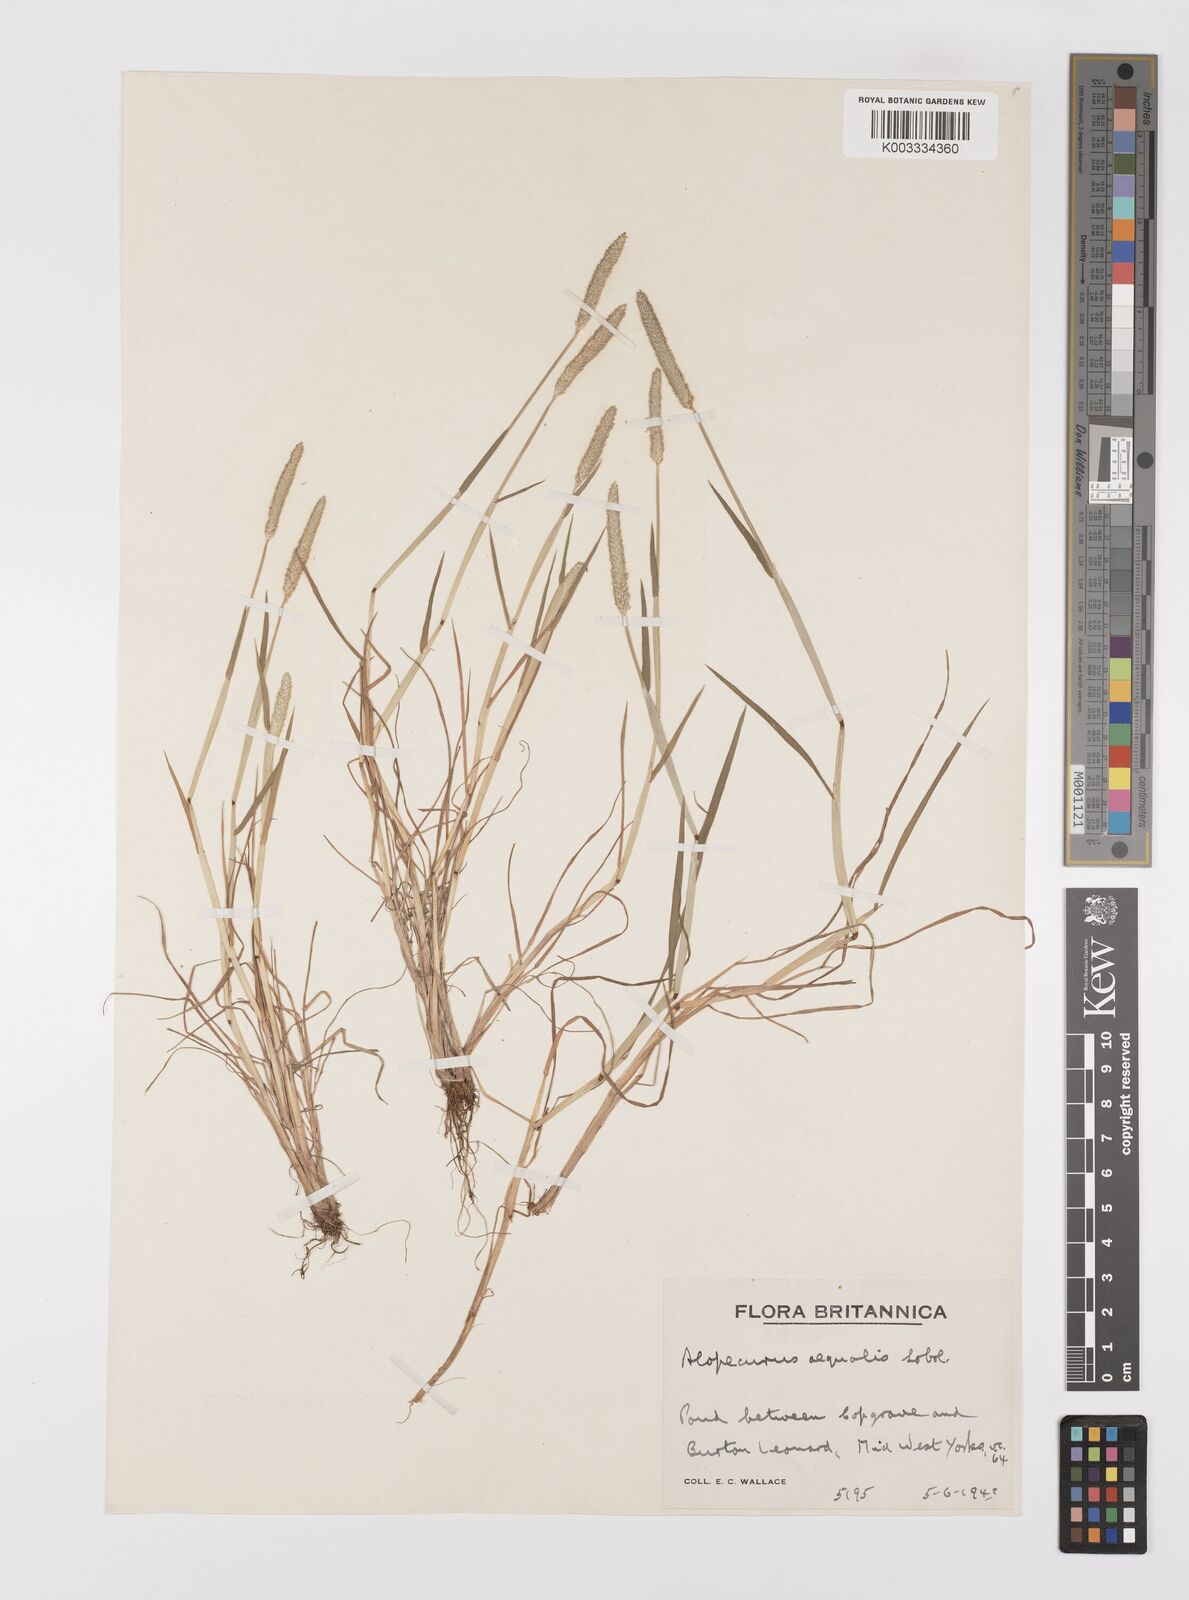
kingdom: Plantae
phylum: Tracheophyta
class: Liliopsida
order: Poales
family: Poaceae
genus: Alopecurus
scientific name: Alopecurus aequalis
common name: Orange foxtail
